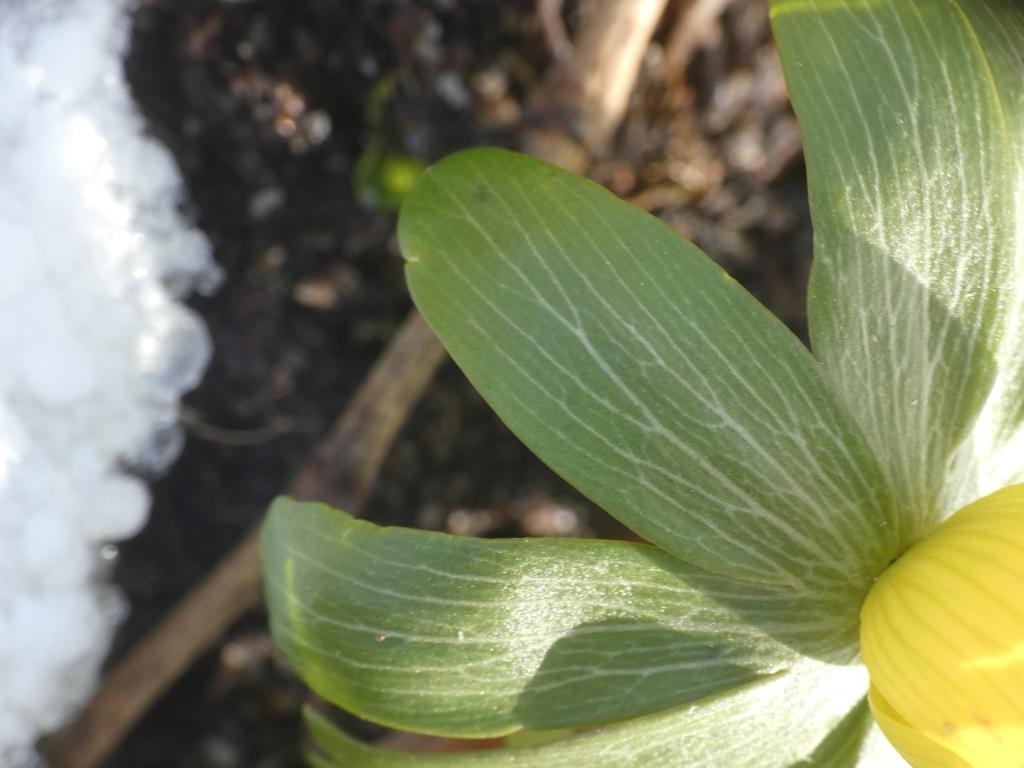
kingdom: Plantae
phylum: Tracheophyta
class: Magnoliopsida
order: Ranunculales
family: Ranunculaceae
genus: Eranthis
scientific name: Eranthis hyemalis
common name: Erantis
